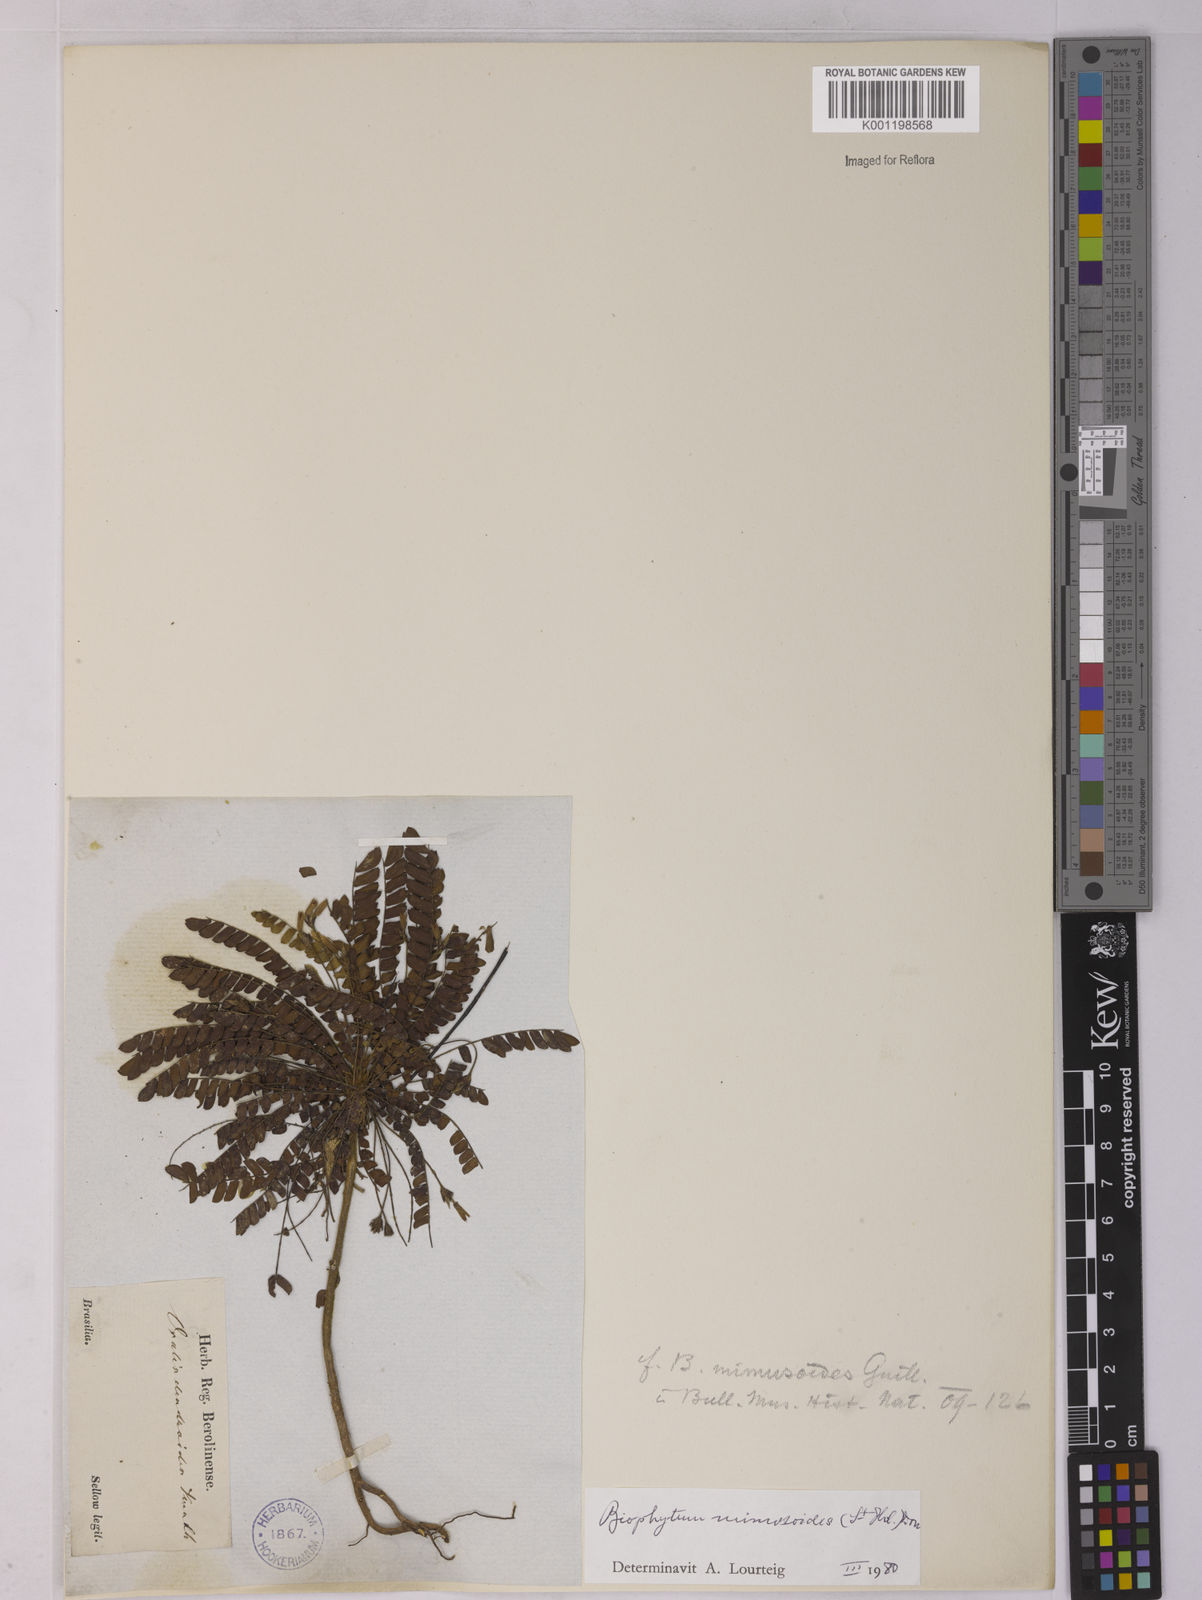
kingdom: Plantae
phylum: Tracheophyta
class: Magnoliopsida
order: Oxalidales
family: Oxalidaceae
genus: Biophytum
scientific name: Biophytum mimosoides
